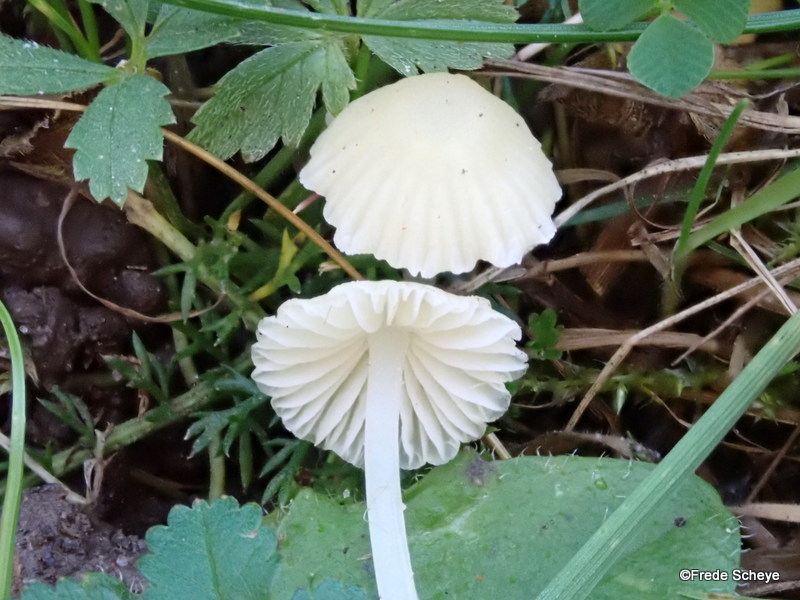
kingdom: Fungi
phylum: Basidiomycota
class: Agaricomycetes
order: Agaricales
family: Mycenaceae
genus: Atheniella
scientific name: Atheniella flavoalba
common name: gulhvid huesvamp
